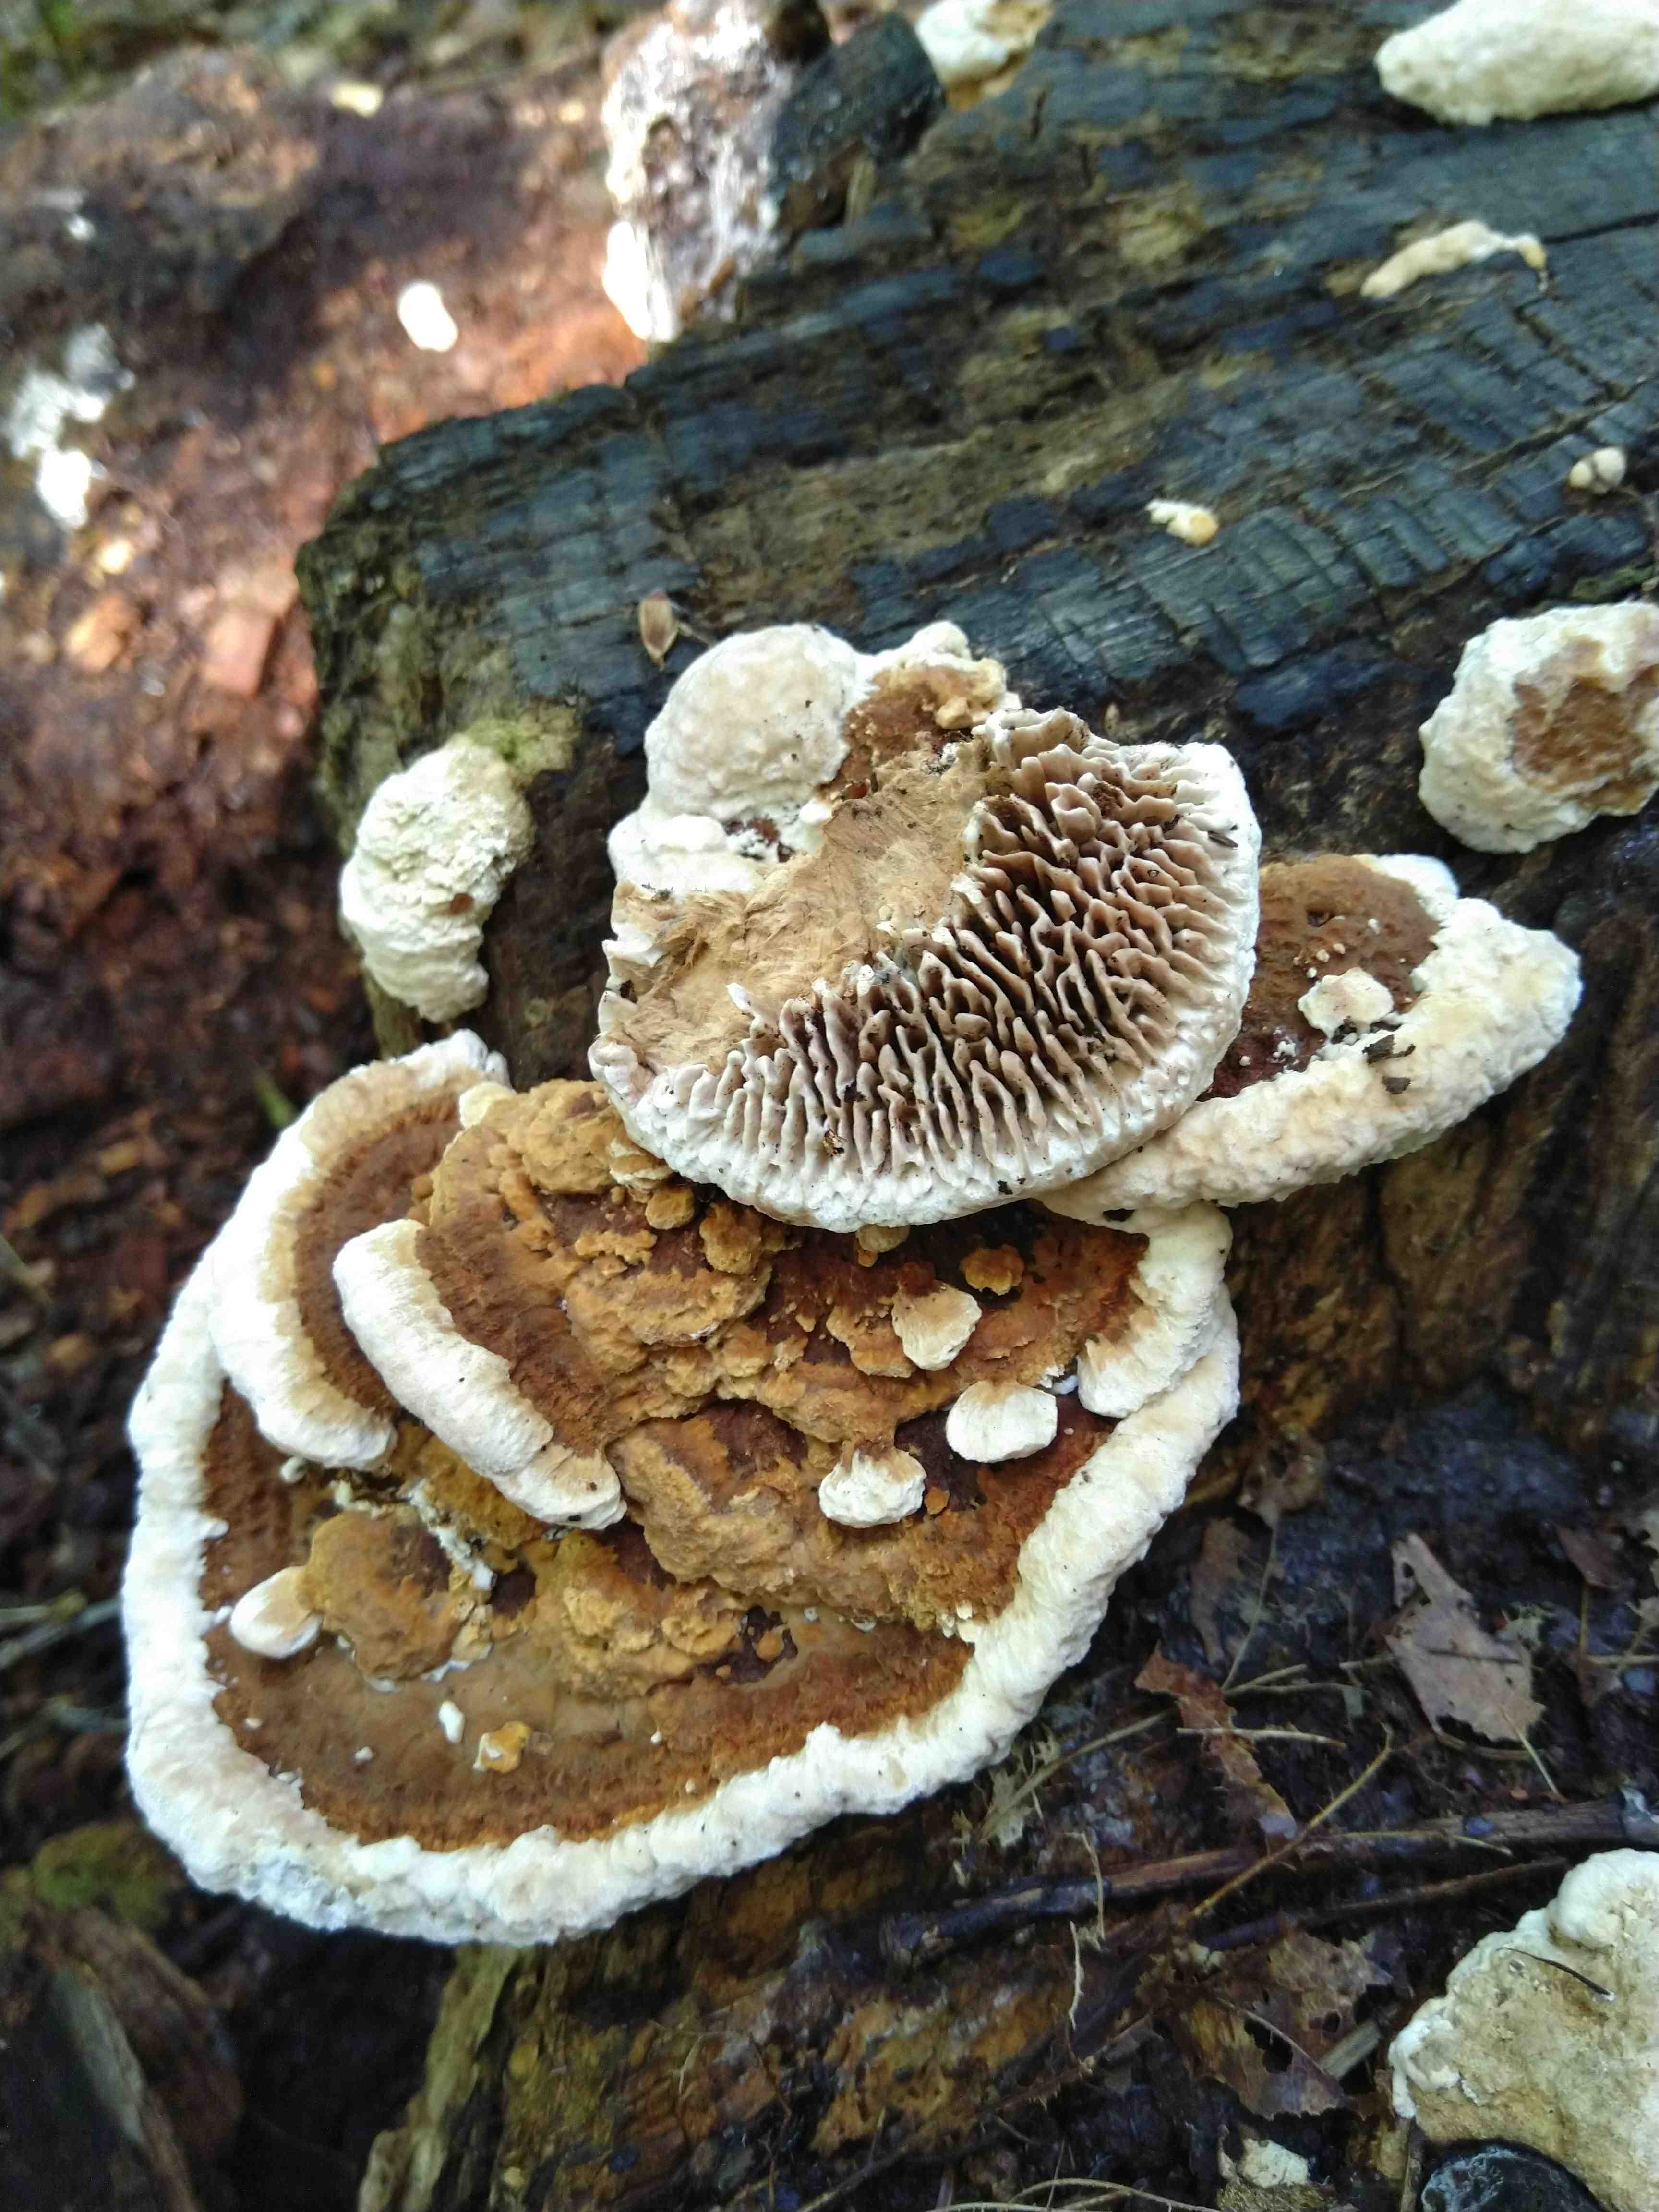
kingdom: Fungi
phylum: Basidiomycota
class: Agaricomycetes
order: Polyporales
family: Fomitopsidaceae
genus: Daedalea
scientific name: Daedalea quercina
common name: ege-labyrintsvamp
